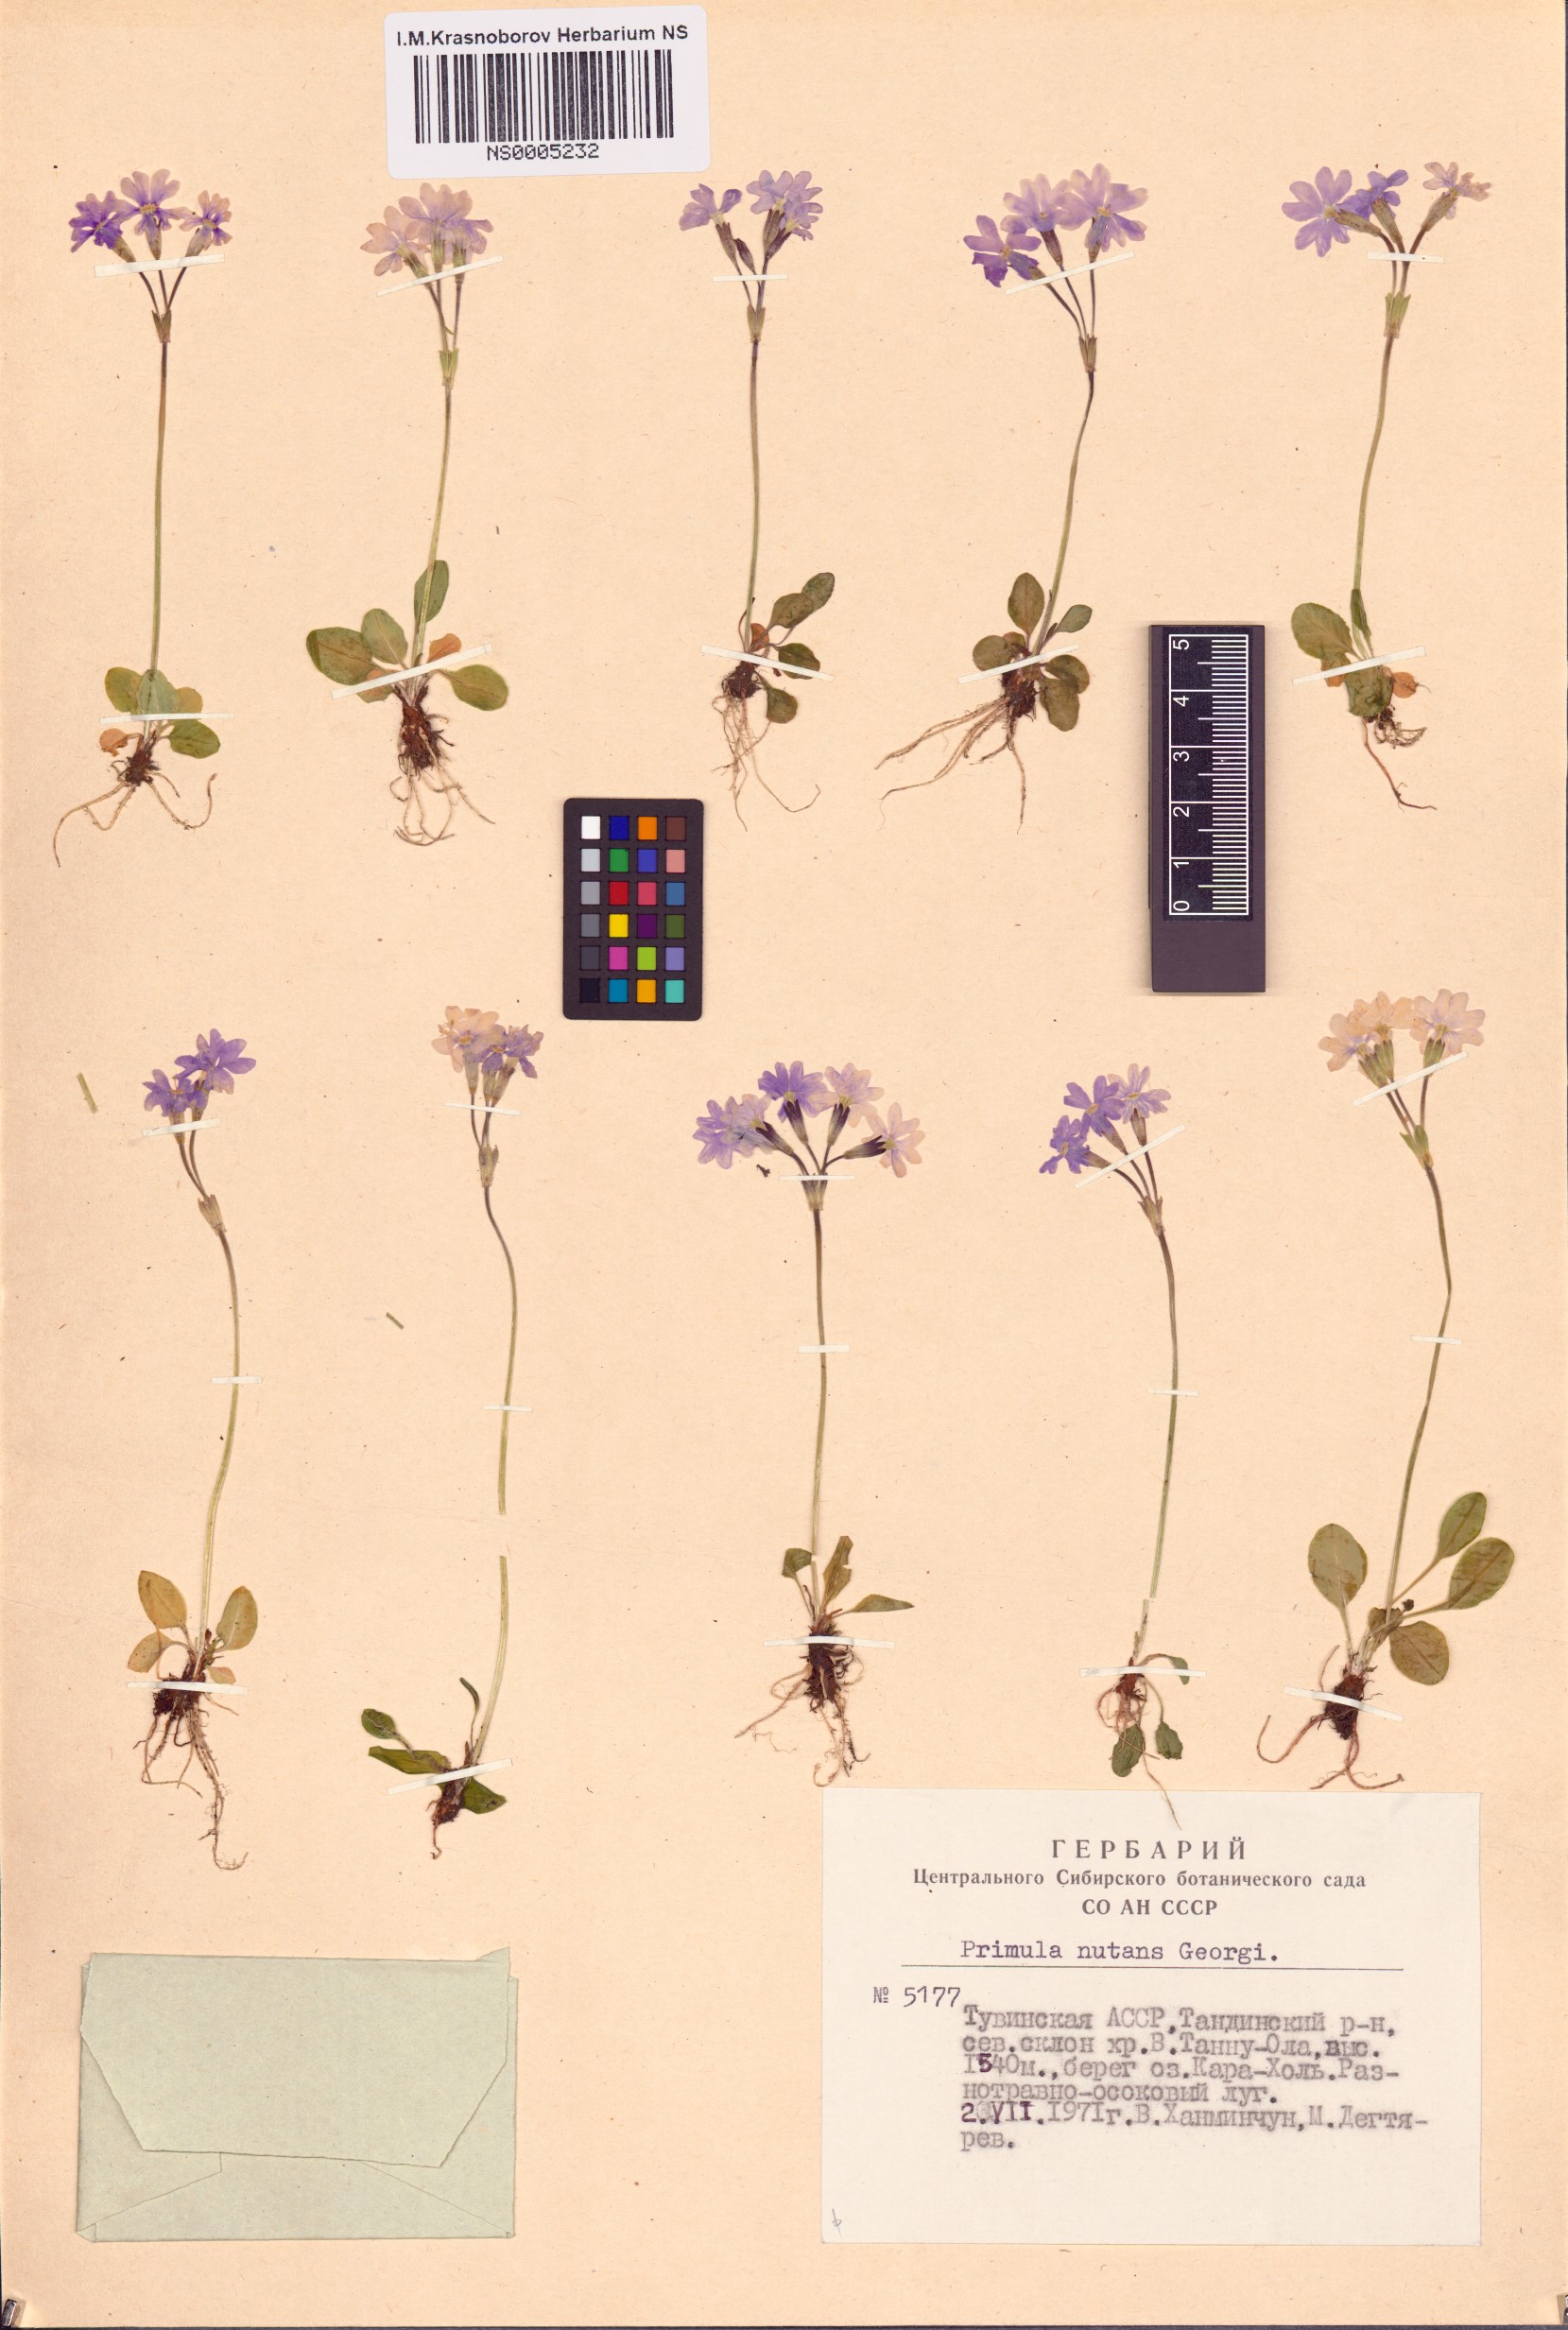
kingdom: Plantae
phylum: Tracheophyta
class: Magnoliopsida
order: Ericales
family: Primulaceae
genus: Primula
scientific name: Primula nutans
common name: Siberian primrose
